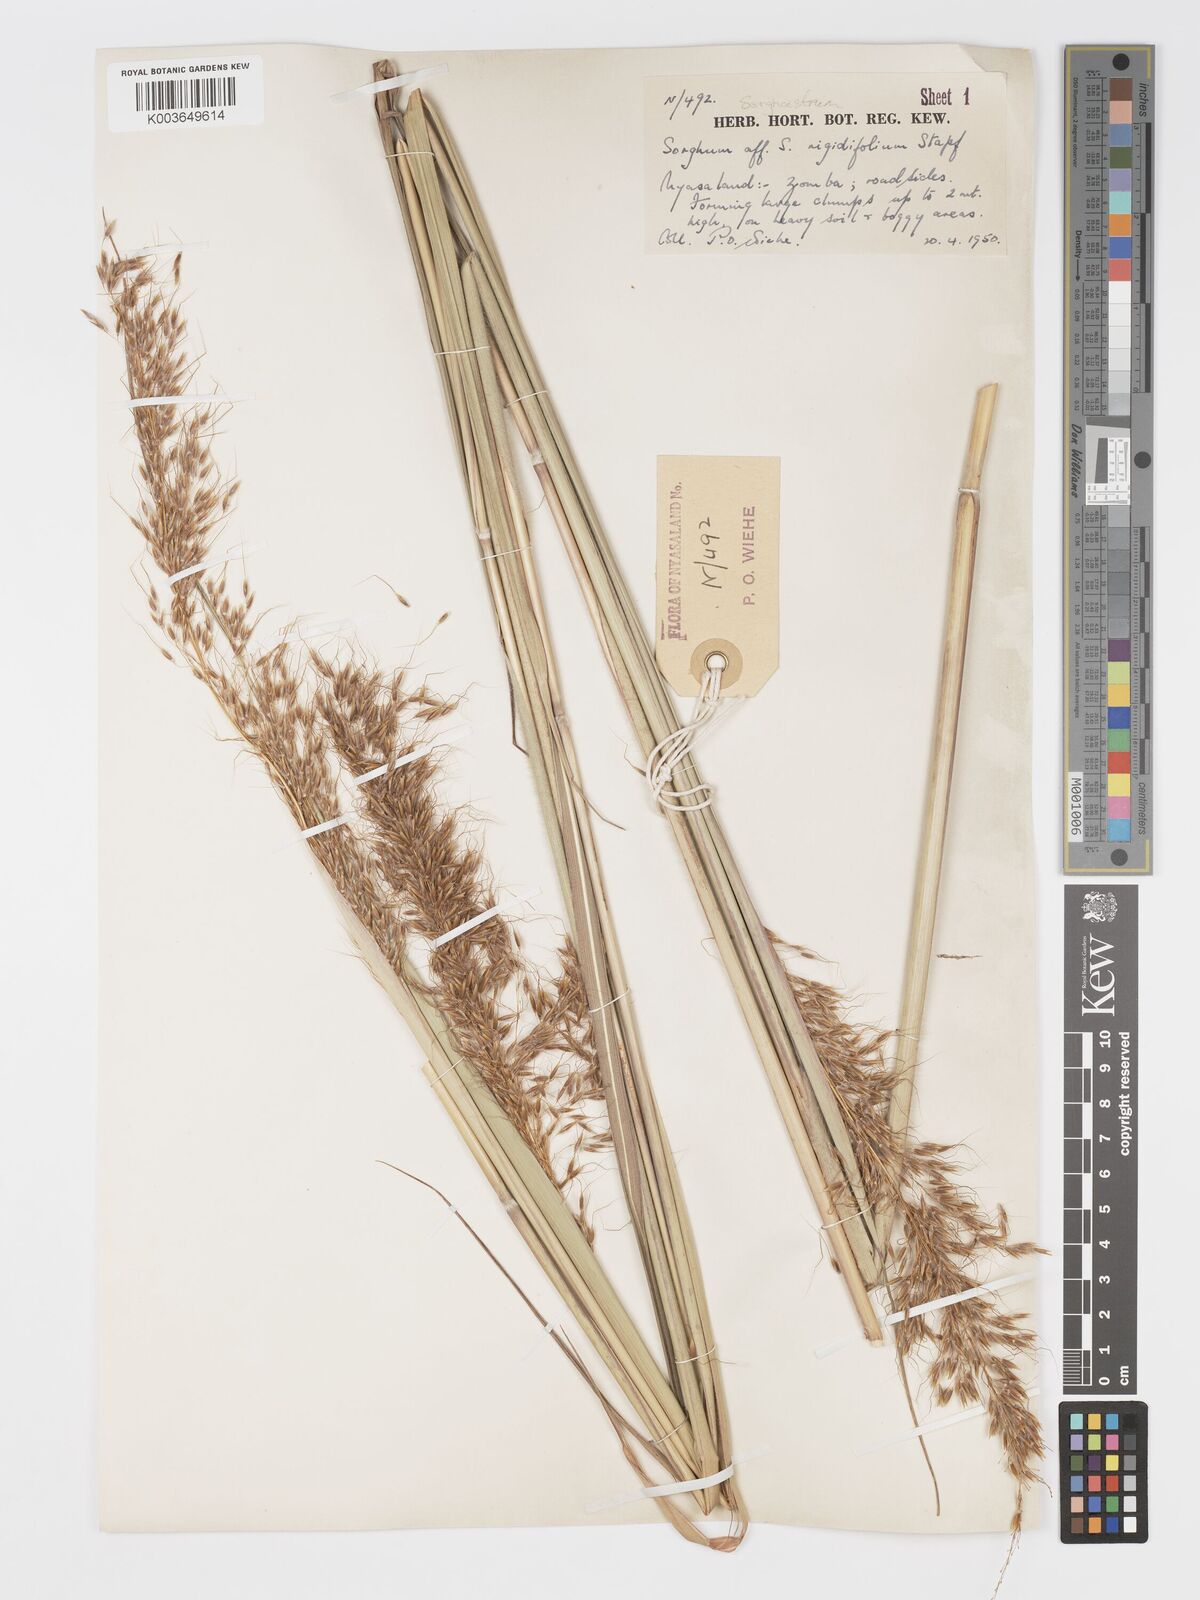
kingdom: Plantae
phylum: Tracheophyta
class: Liliopsida
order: Poales
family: Poaceae
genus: Sorghastrum
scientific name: Sorghastrum stipoides
